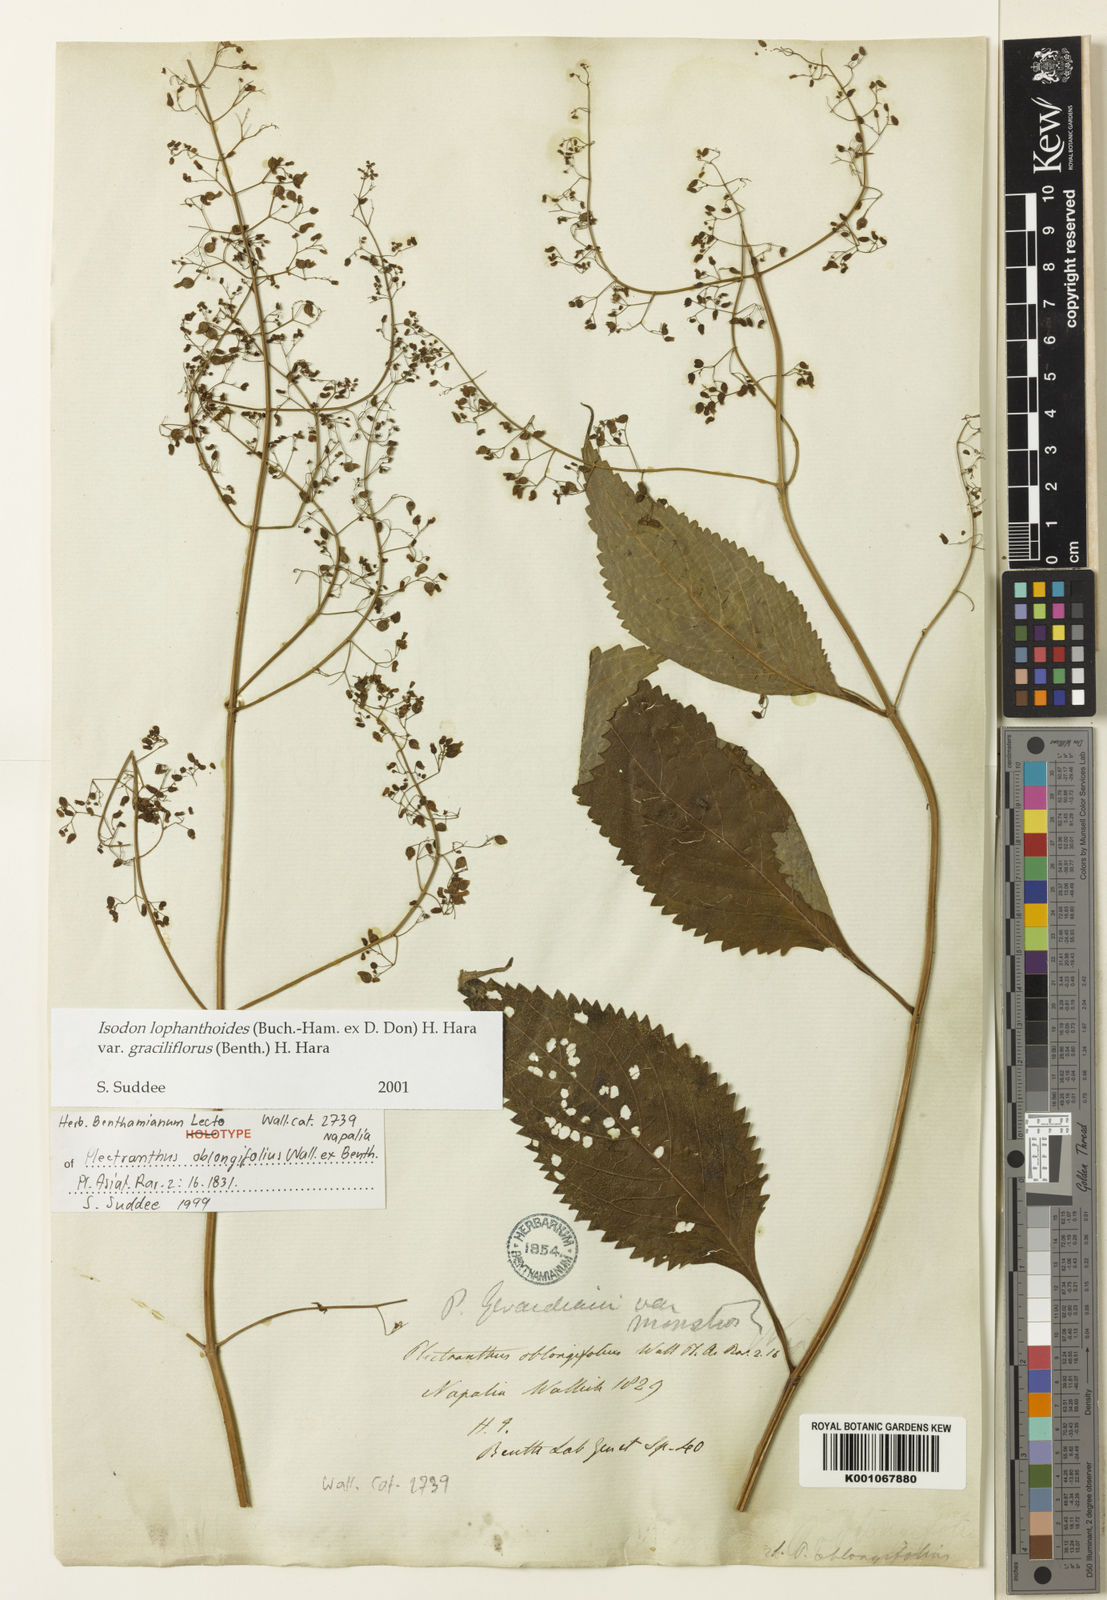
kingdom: Plantae
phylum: Tracheophyta
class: Magnoliopsida
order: Lamiales
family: Lamiaceae
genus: Isodon
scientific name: Isodon lophanthoides
